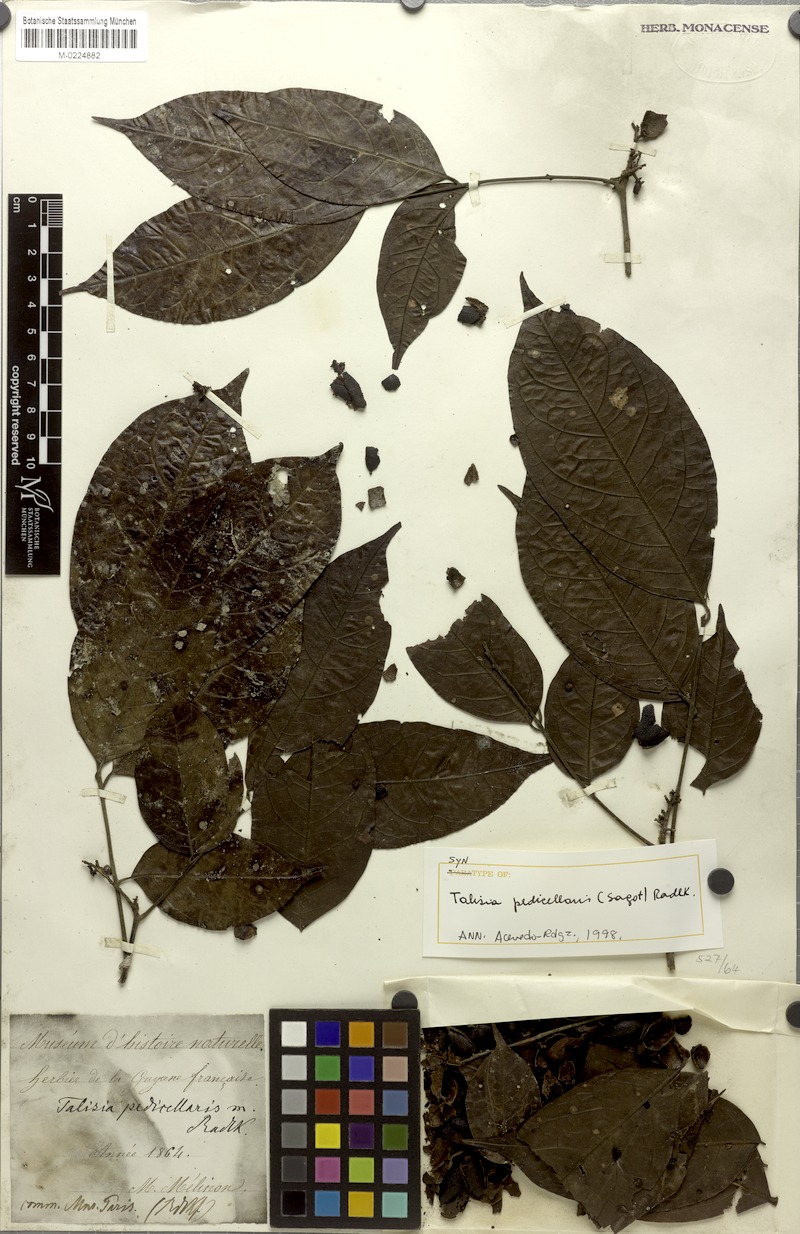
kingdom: Plantae
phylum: Tracheophyta
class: Magnoliopsida
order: Sapindales
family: Sapindaceae
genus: Melicoccus
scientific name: Melicoccus pedicellaris
